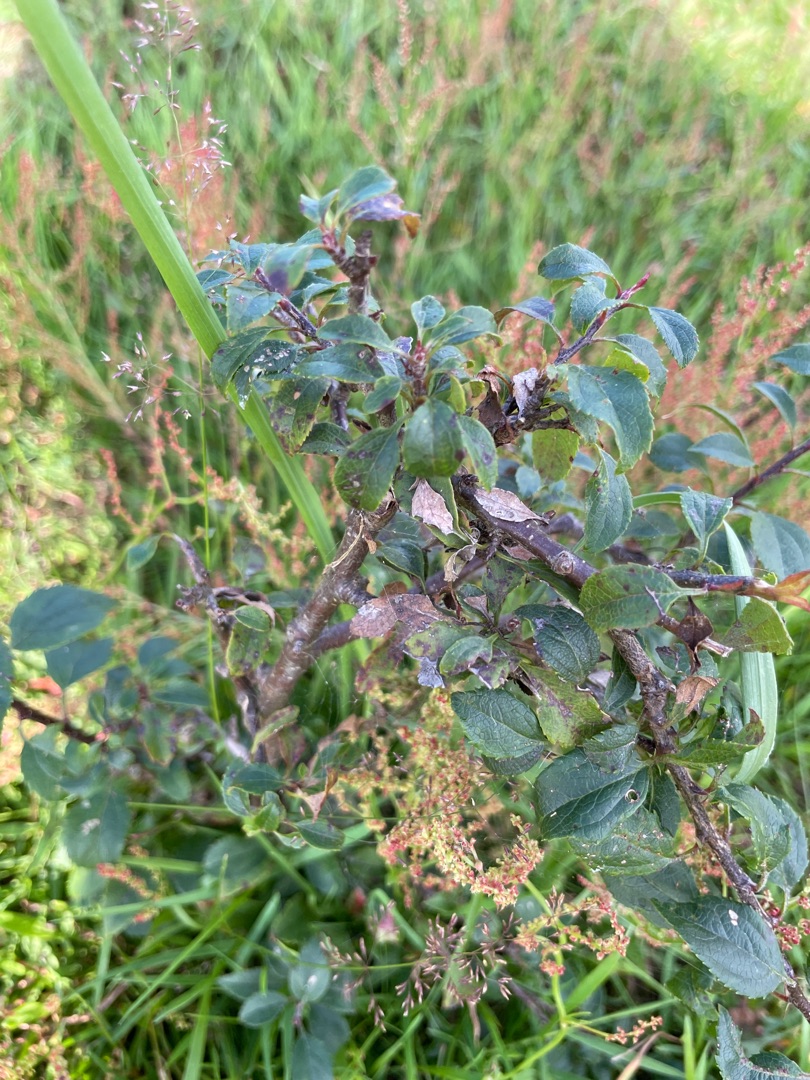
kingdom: Plantae
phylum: Tracheophyta
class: Magnoliopsida
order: Rosales
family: Rosaceae
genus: Prunus
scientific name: Prunus spinosa
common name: Slåen
